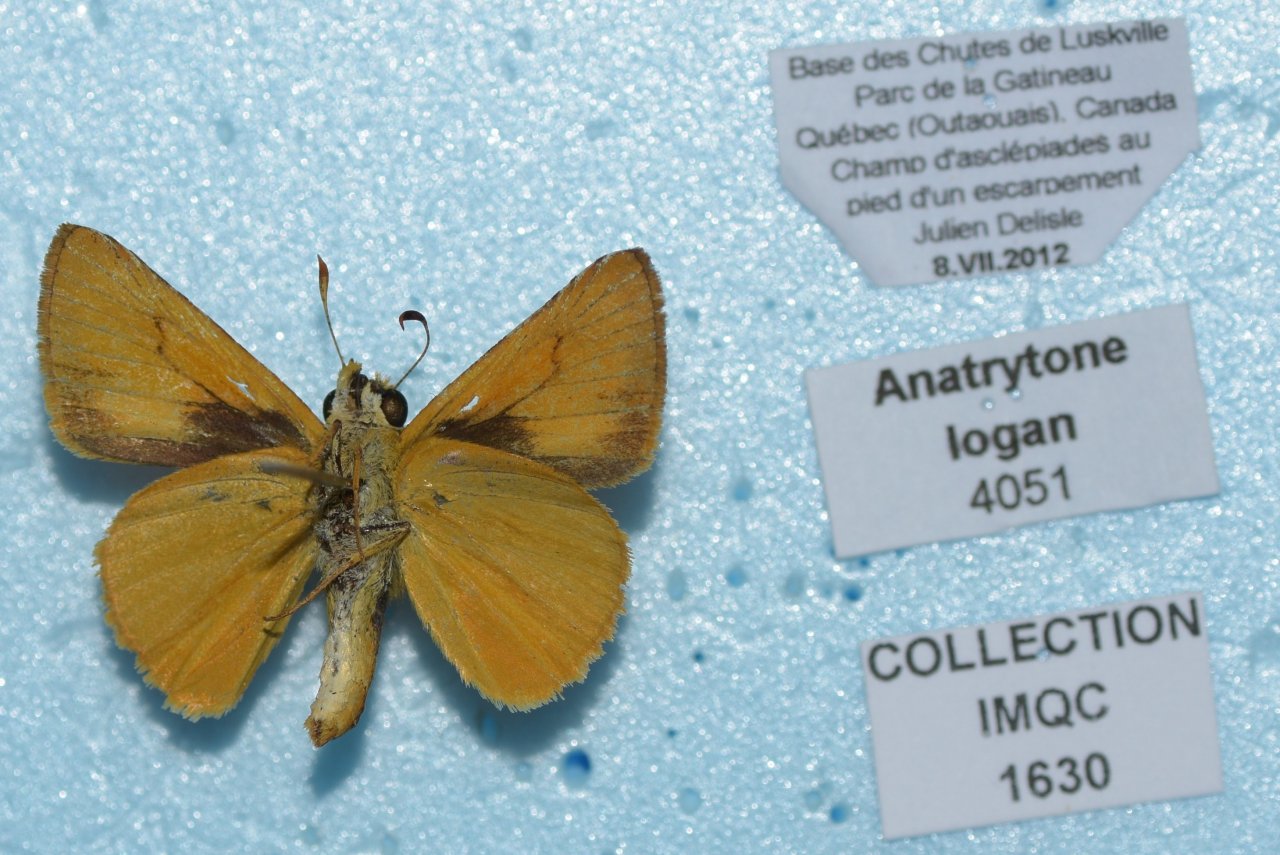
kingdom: Animalia
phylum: Arthropoda
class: Insecta
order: Lepidoptera
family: Hesperiidae
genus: Atrytone
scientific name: Atrytone delaware
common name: Delaware Skipper
